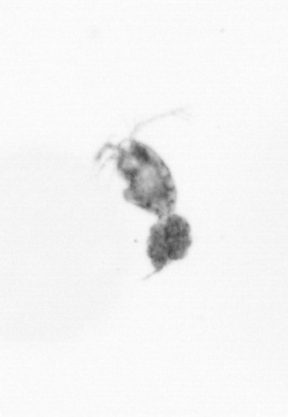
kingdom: Animalia
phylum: Arthropoda
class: Copepoda
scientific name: Copepoda
